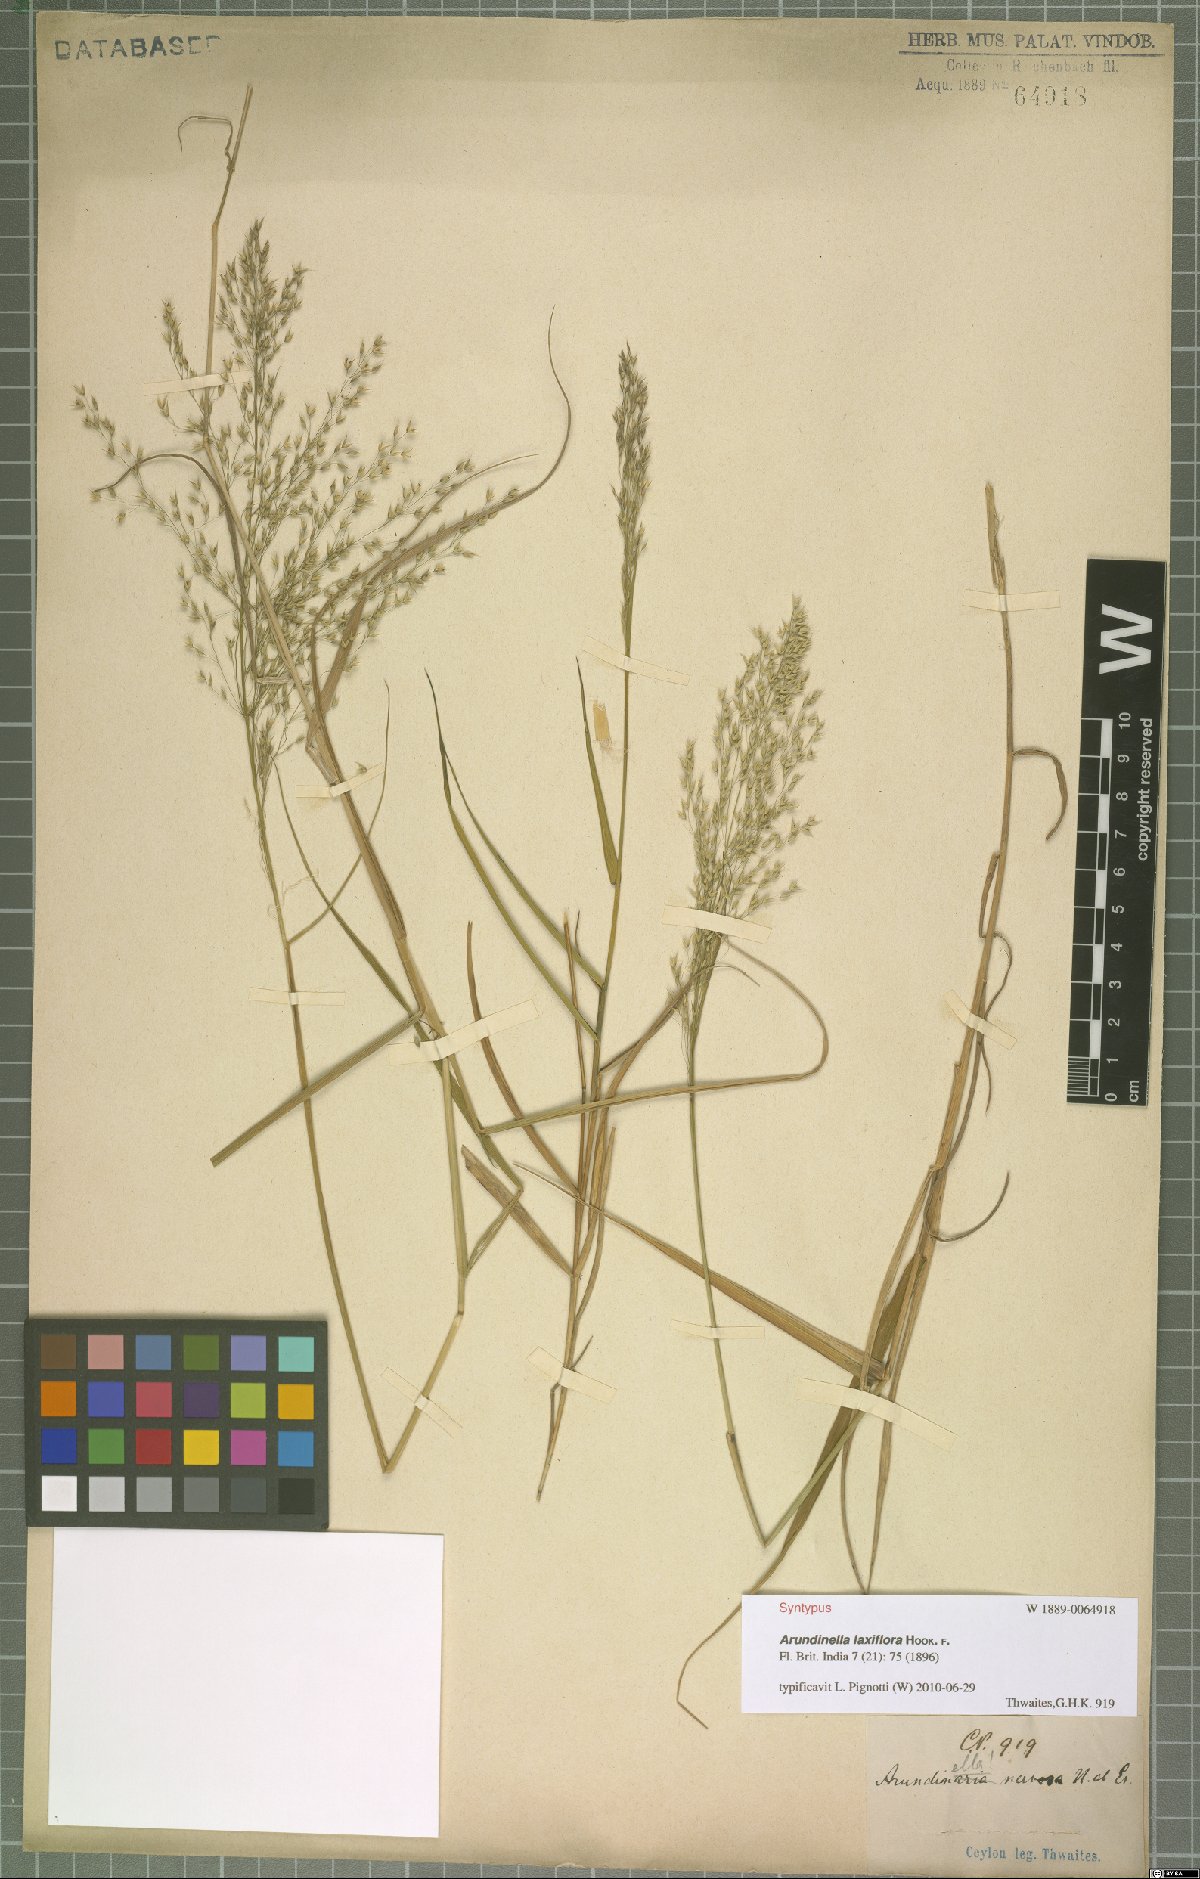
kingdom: Plantae
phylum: Tracheophyta
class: Liliopsida
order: Poales
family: Poaceae
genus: Arundinella
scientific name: Arundinella laxiflora
